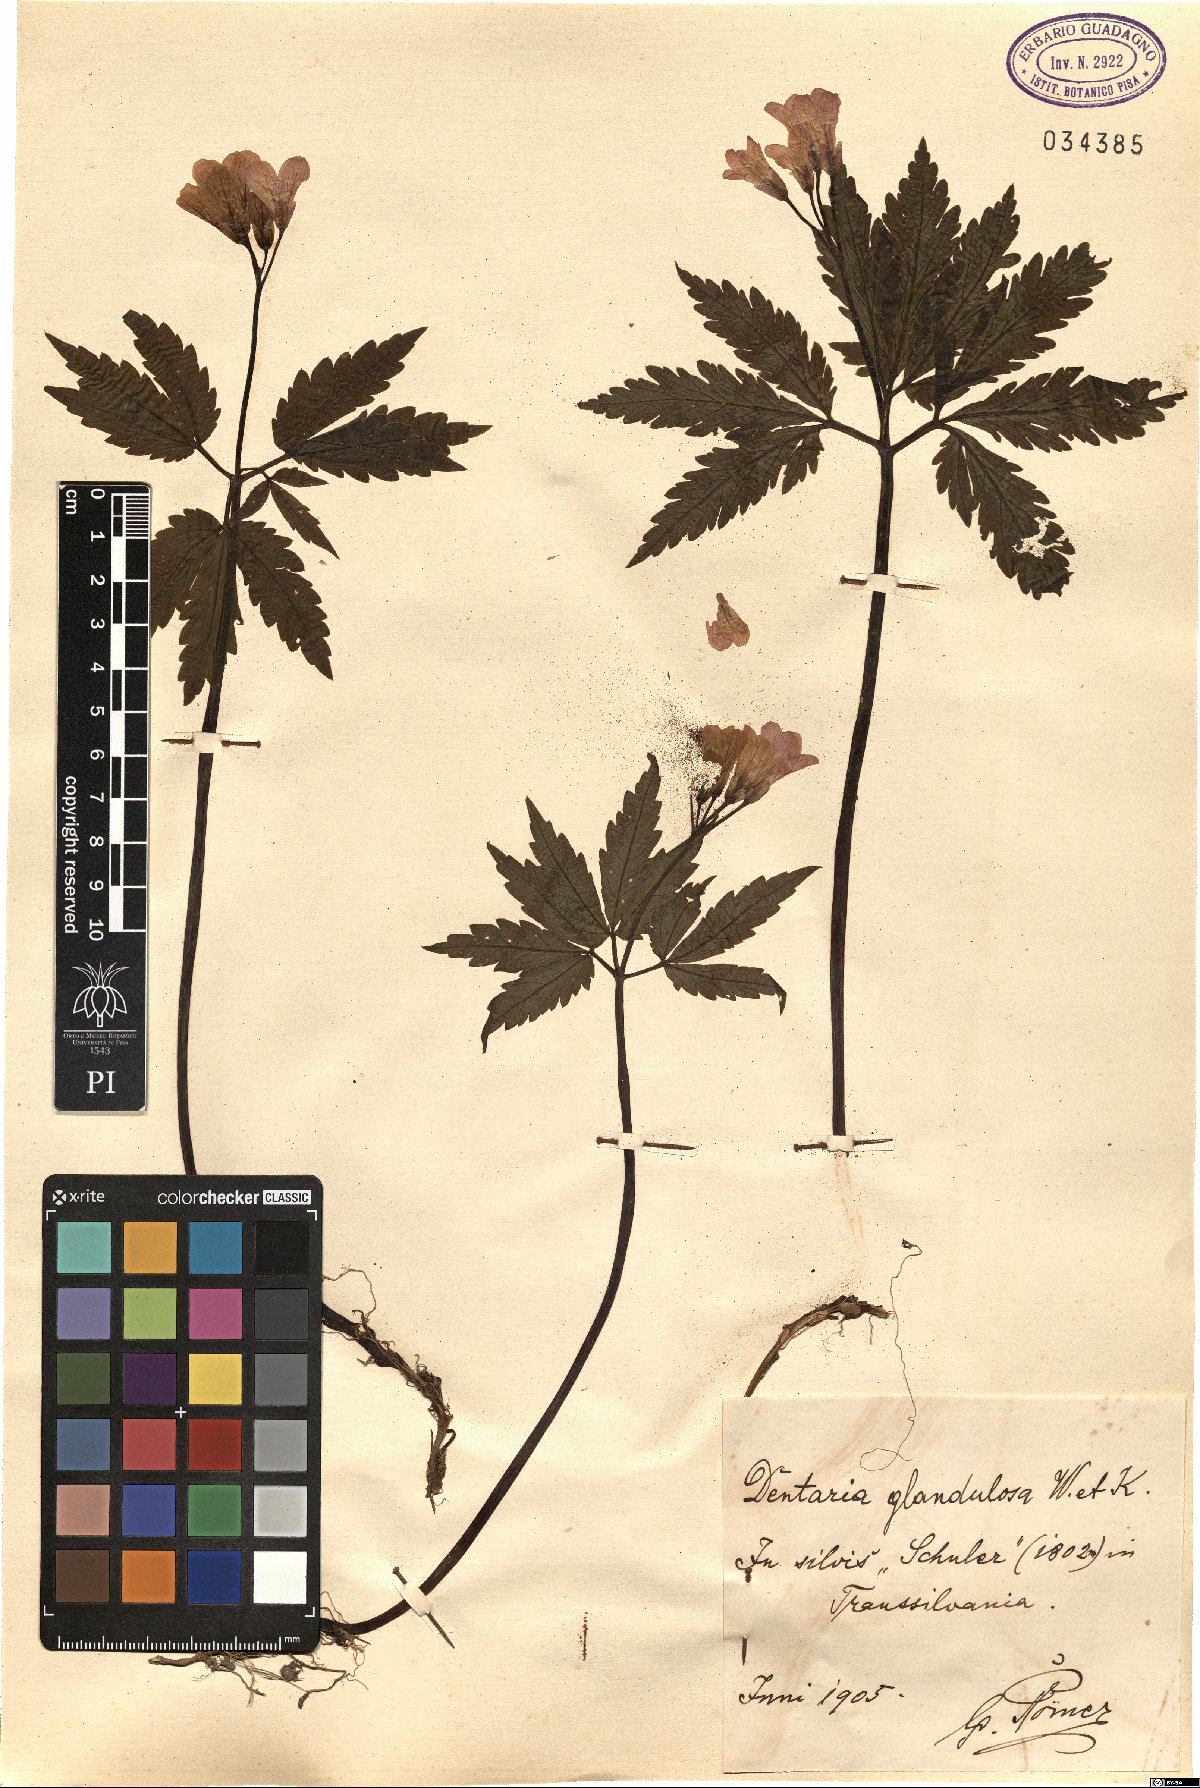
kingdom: Plantae
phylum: Tracheophyta
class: Magnoliopsida
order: Brassicales
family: Brassicaceae
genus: Cardamine
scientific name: Cardamine glanduligera
